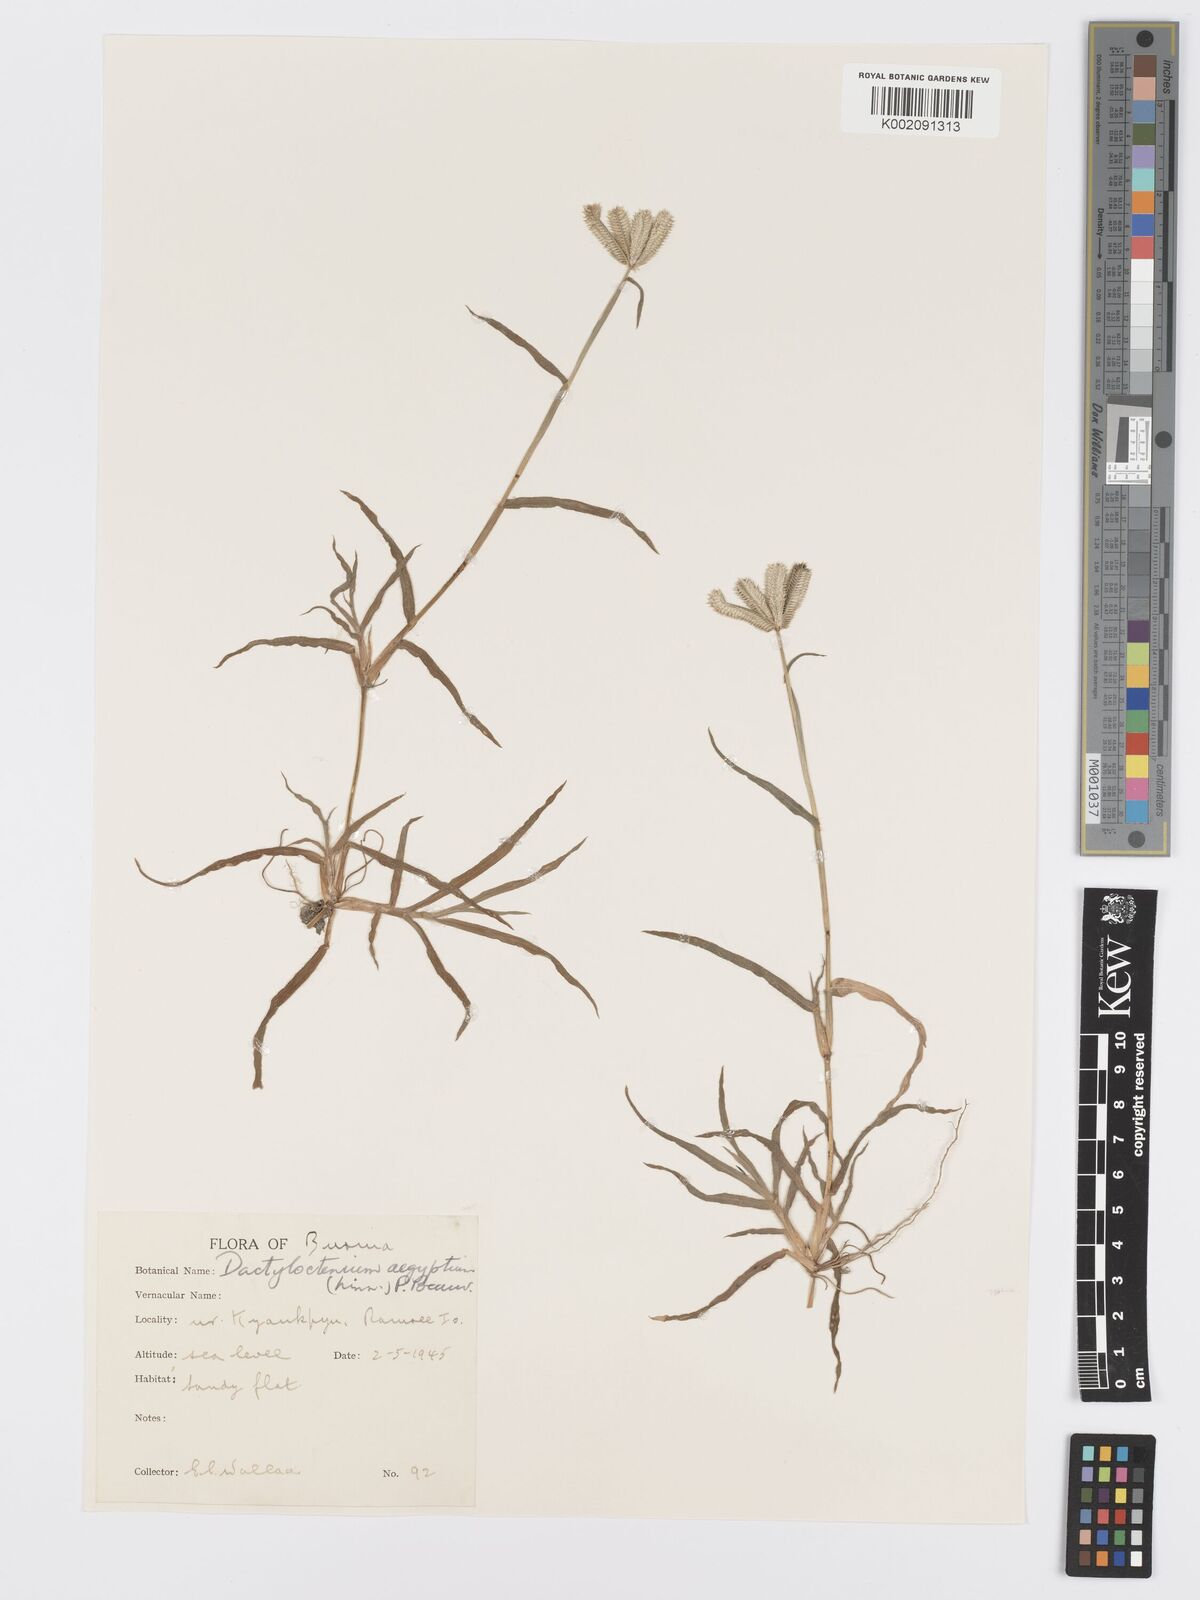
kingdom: Plantae
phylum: Tracheophyta
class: Liliopsida
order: Poales
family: Poaceae
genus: Dactyloctenium
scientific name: Dactyloctenium aegyptium
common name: Egyptian grass
